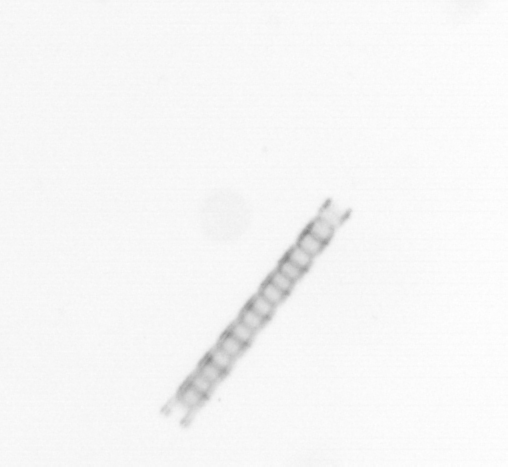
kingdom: Chromista
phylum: Ochrophyta
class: Bacillariophyceae
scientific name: Bacillariophyceae
